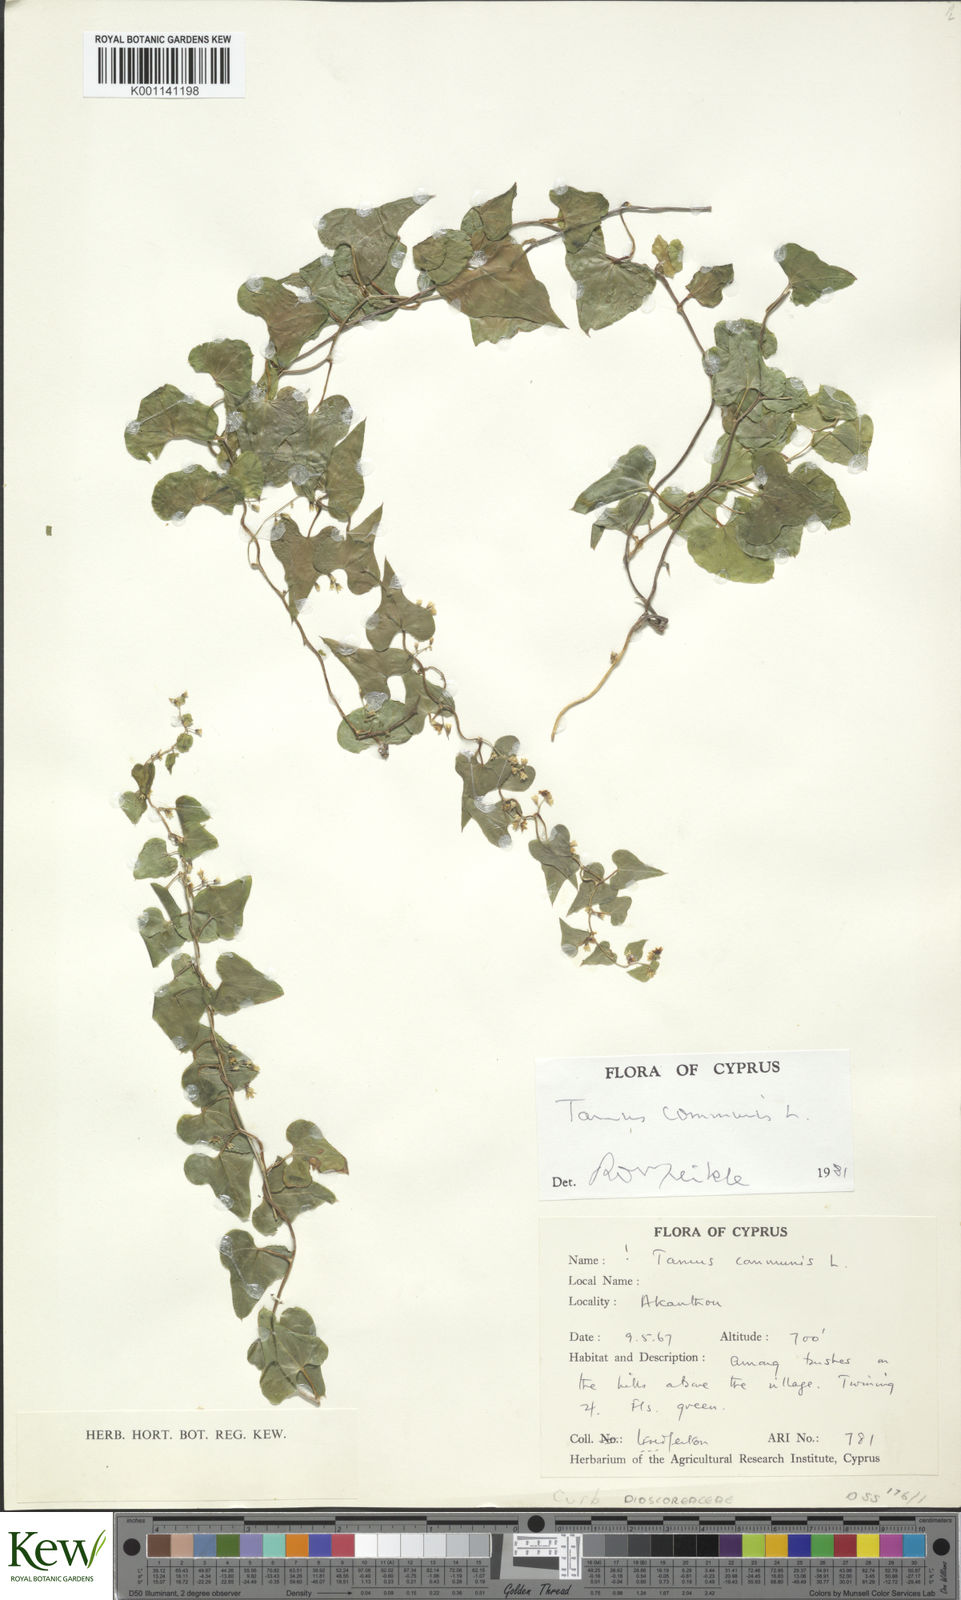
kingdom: Plantae
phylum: Tracheophyta
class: Liliopsida
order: Dioscoreales
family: Dioscoreaceae
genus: Dioscorea
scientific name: Dioscorea communis
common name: Black-bindweed
